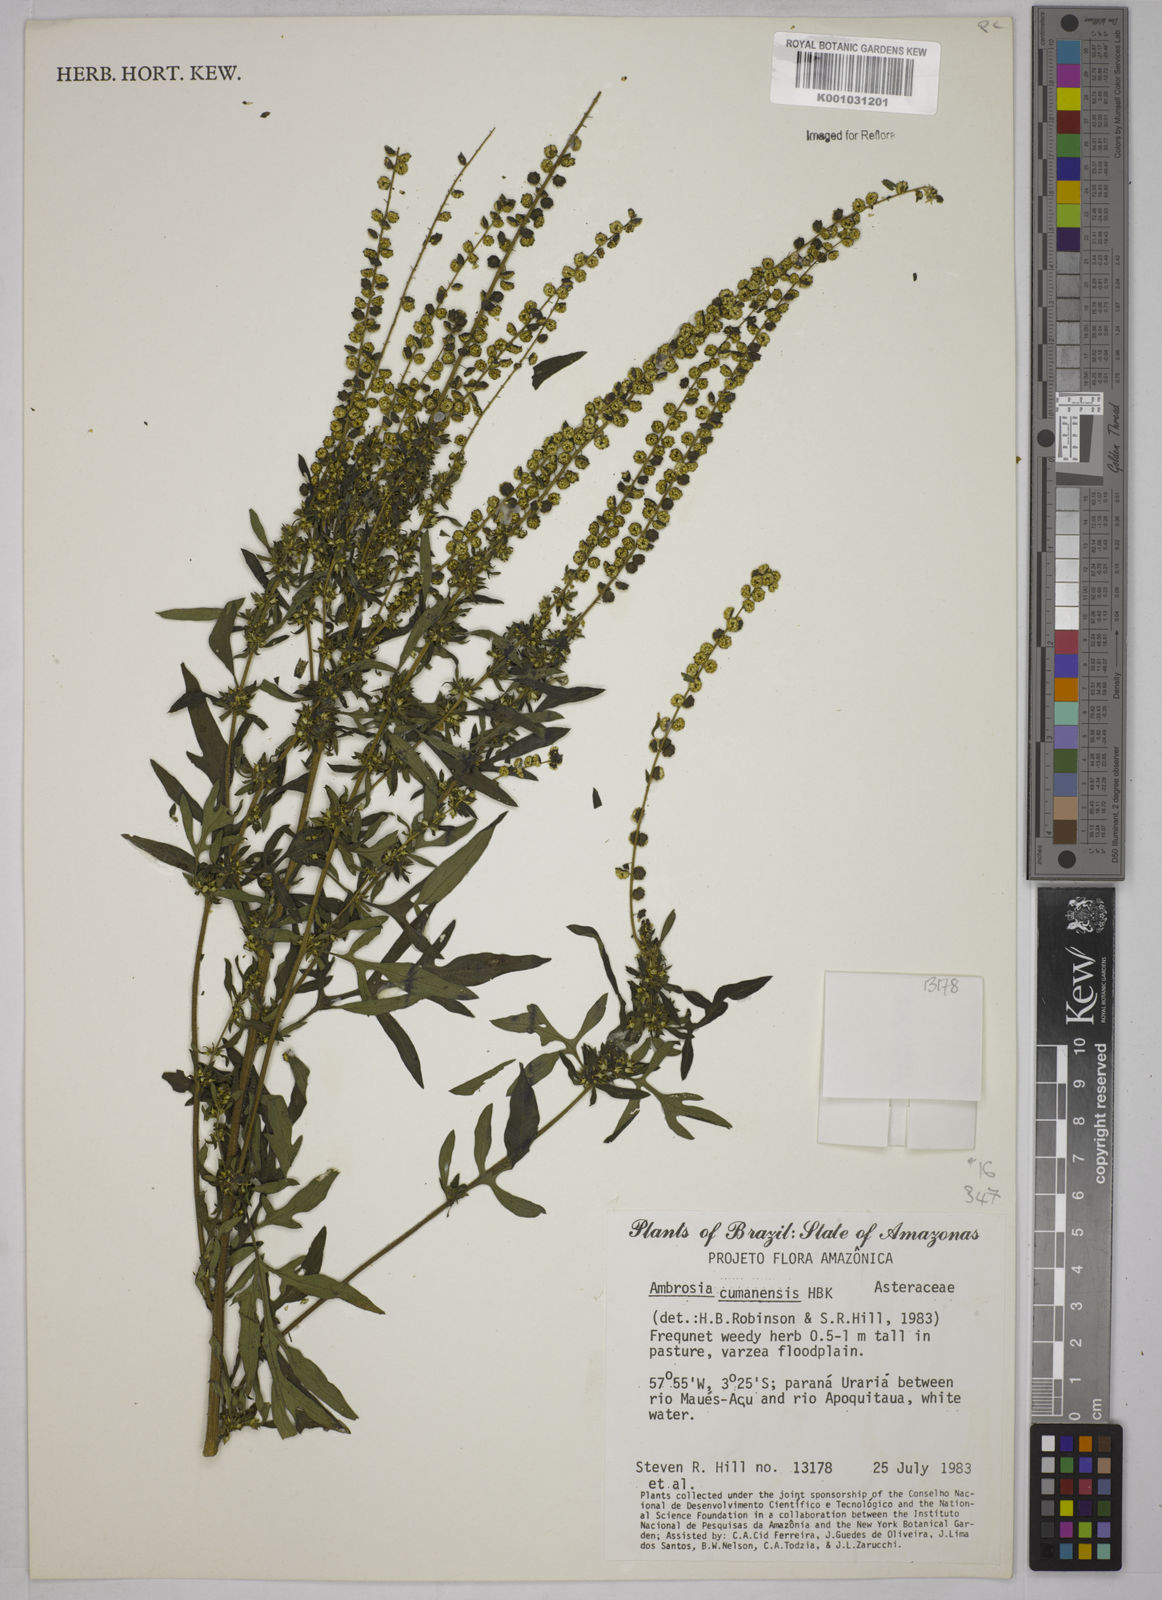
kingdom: Plantae
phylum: Tracheophyta
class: Magnoliopsida
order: Asterales
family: Asteraceae
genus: Ambrosia
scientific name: Ambrosia cumanensis
